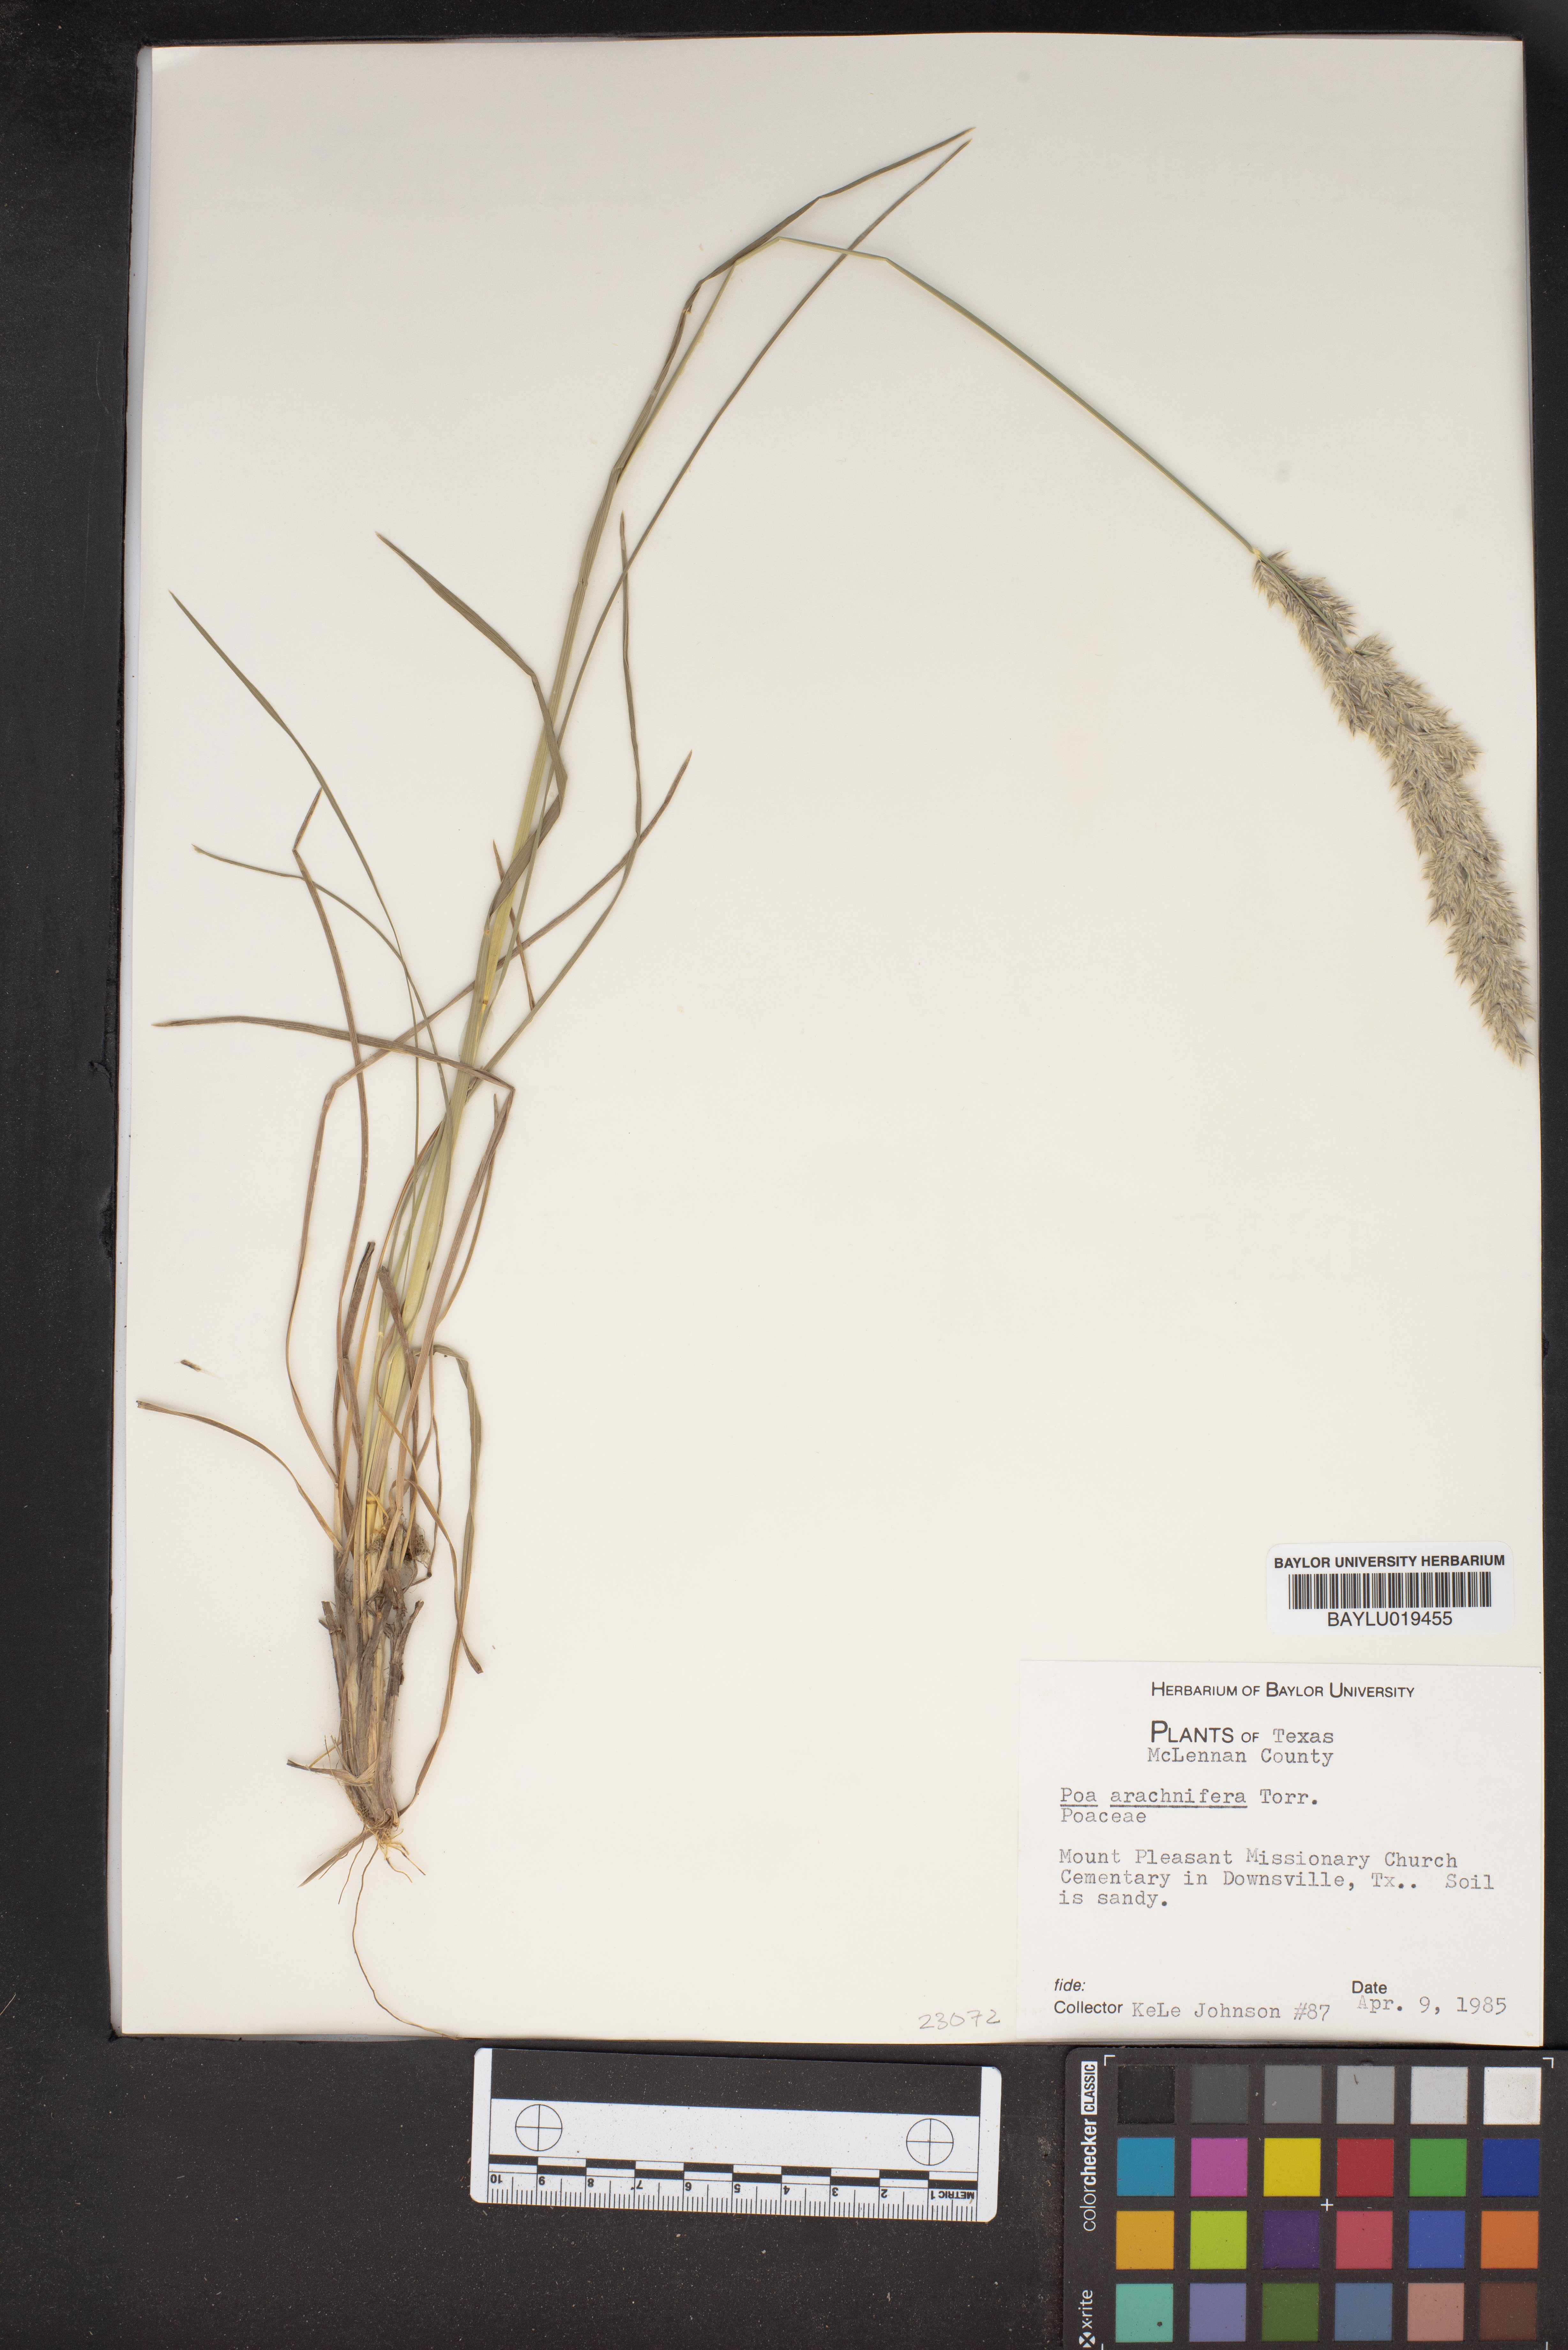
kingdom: Plantae
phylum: Tracheophyta
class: Liliopsida
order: Poales
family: Poaceae
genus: Poa
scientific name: Poa arachnifera
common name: Texas bluegrass
